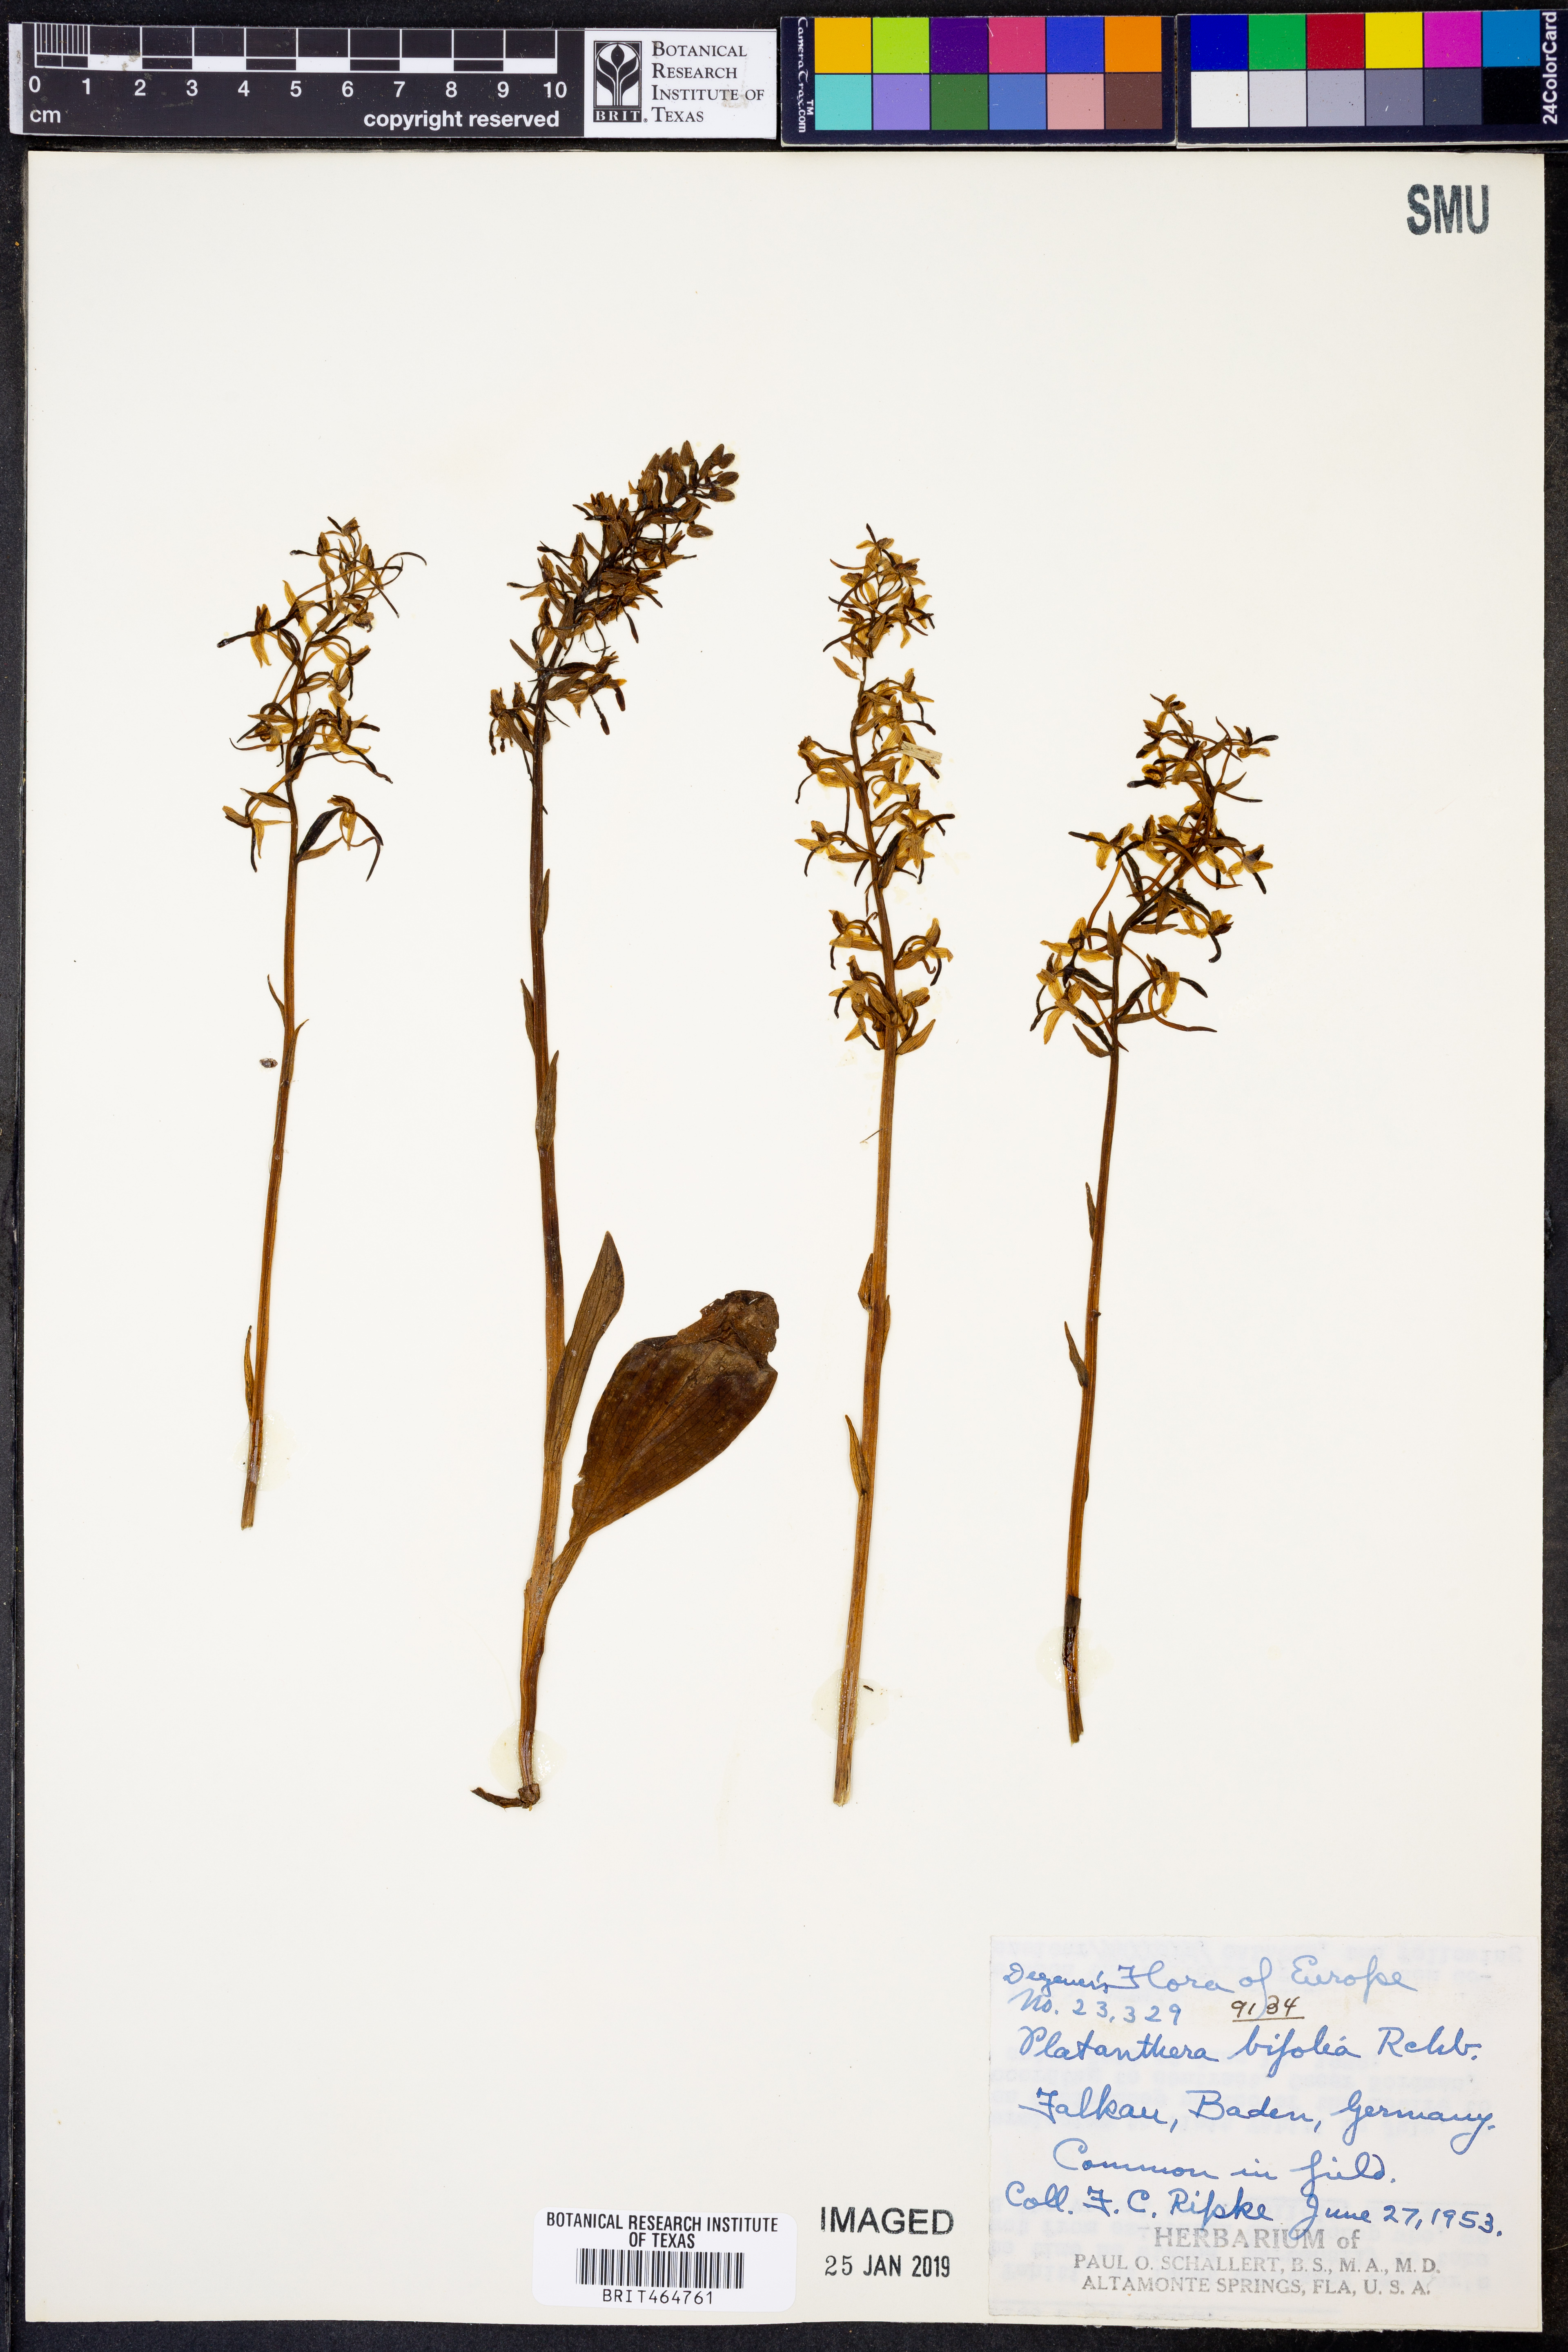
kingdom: Plantae
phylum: Tracheophyta
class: Liliopsida
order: Asparagales
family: Orchidaceae
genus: Platanthera
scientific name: Platanthera bifolia
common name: Lesser butterfly-orchid
